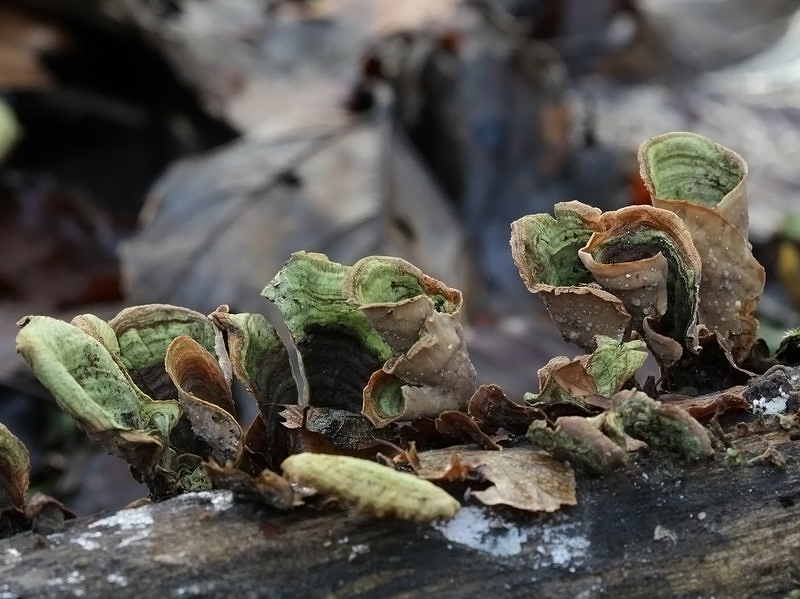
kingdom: Fungi
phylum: Basidiomycota
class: Agaricomycetes
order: Russulales
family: Stereaceae
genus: Stereum
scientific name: Stereum subtomentosum
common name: smuk lædersvamp
